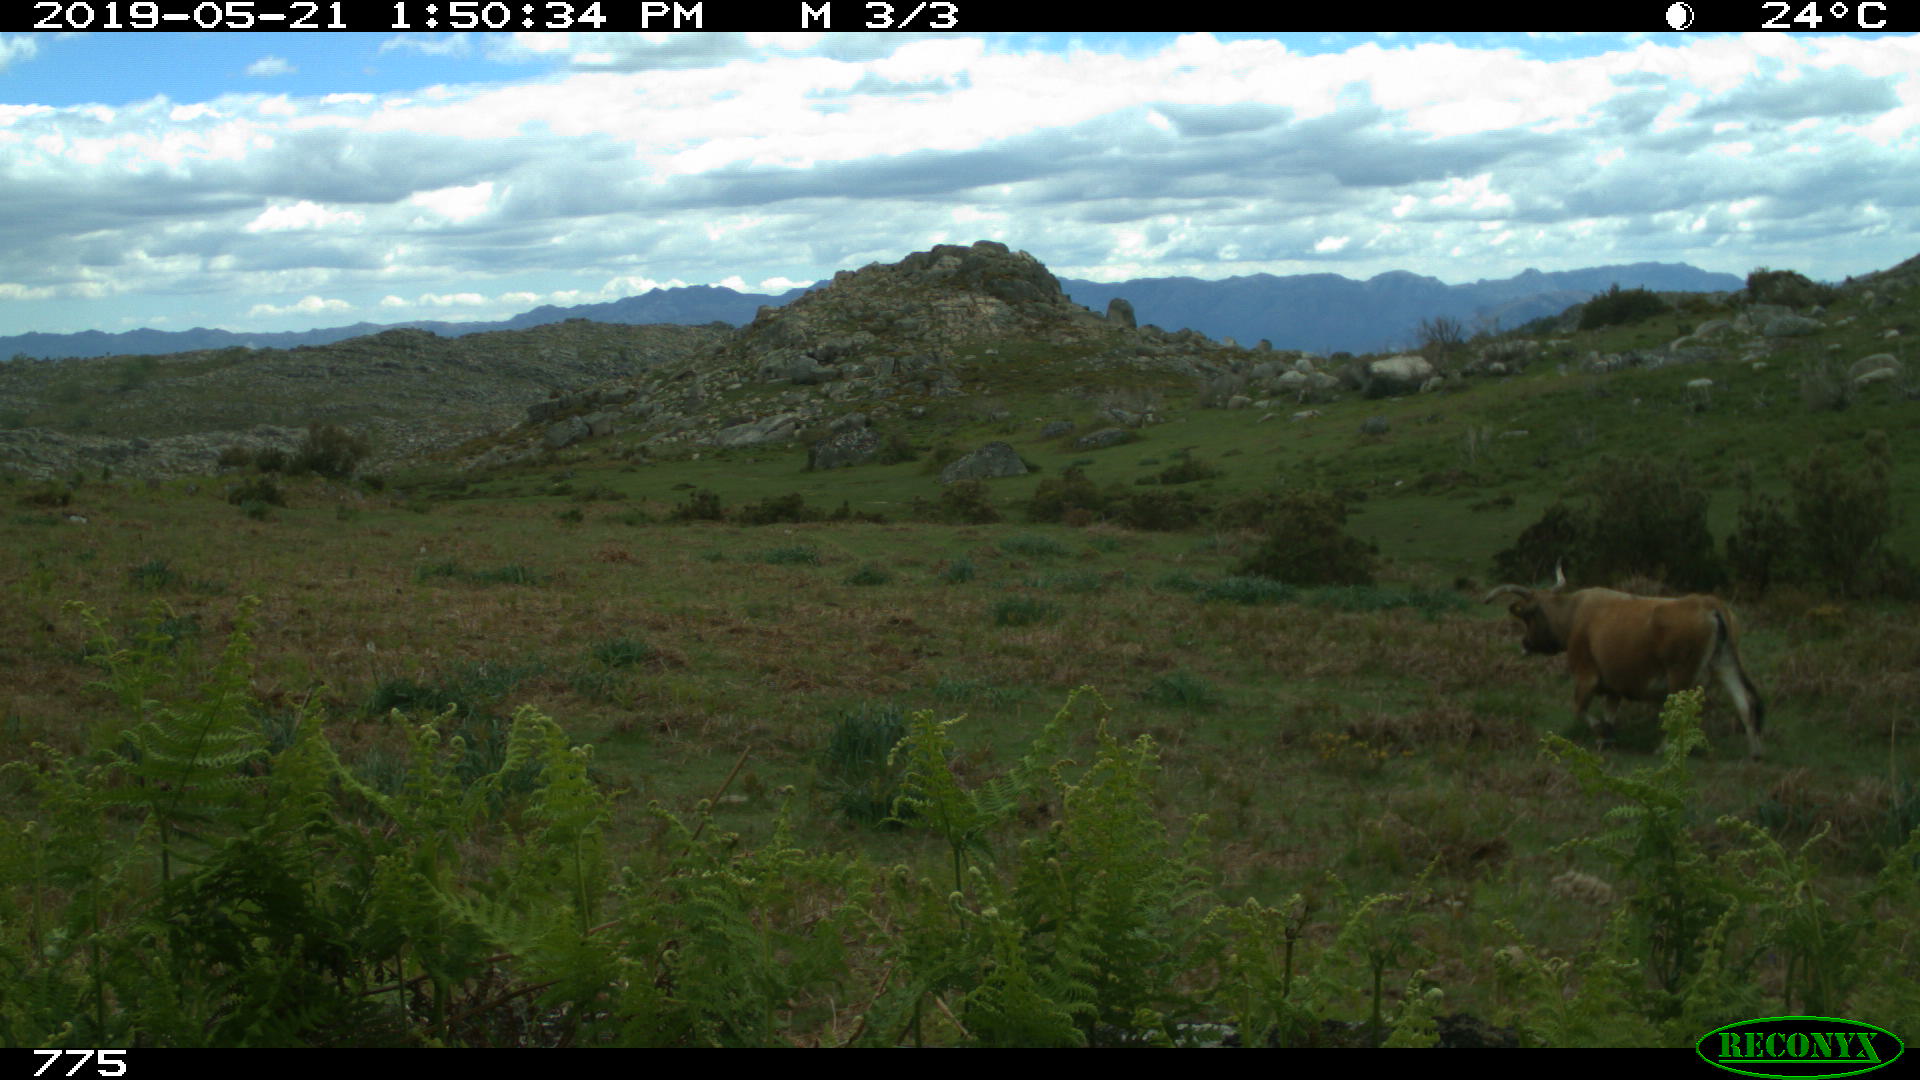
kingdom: Animalia
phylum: Chordata
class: Mammalia
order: Artiodactyla
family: Bovidae
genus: Bos
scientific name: Bos taurus
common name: Domesticated cattle
